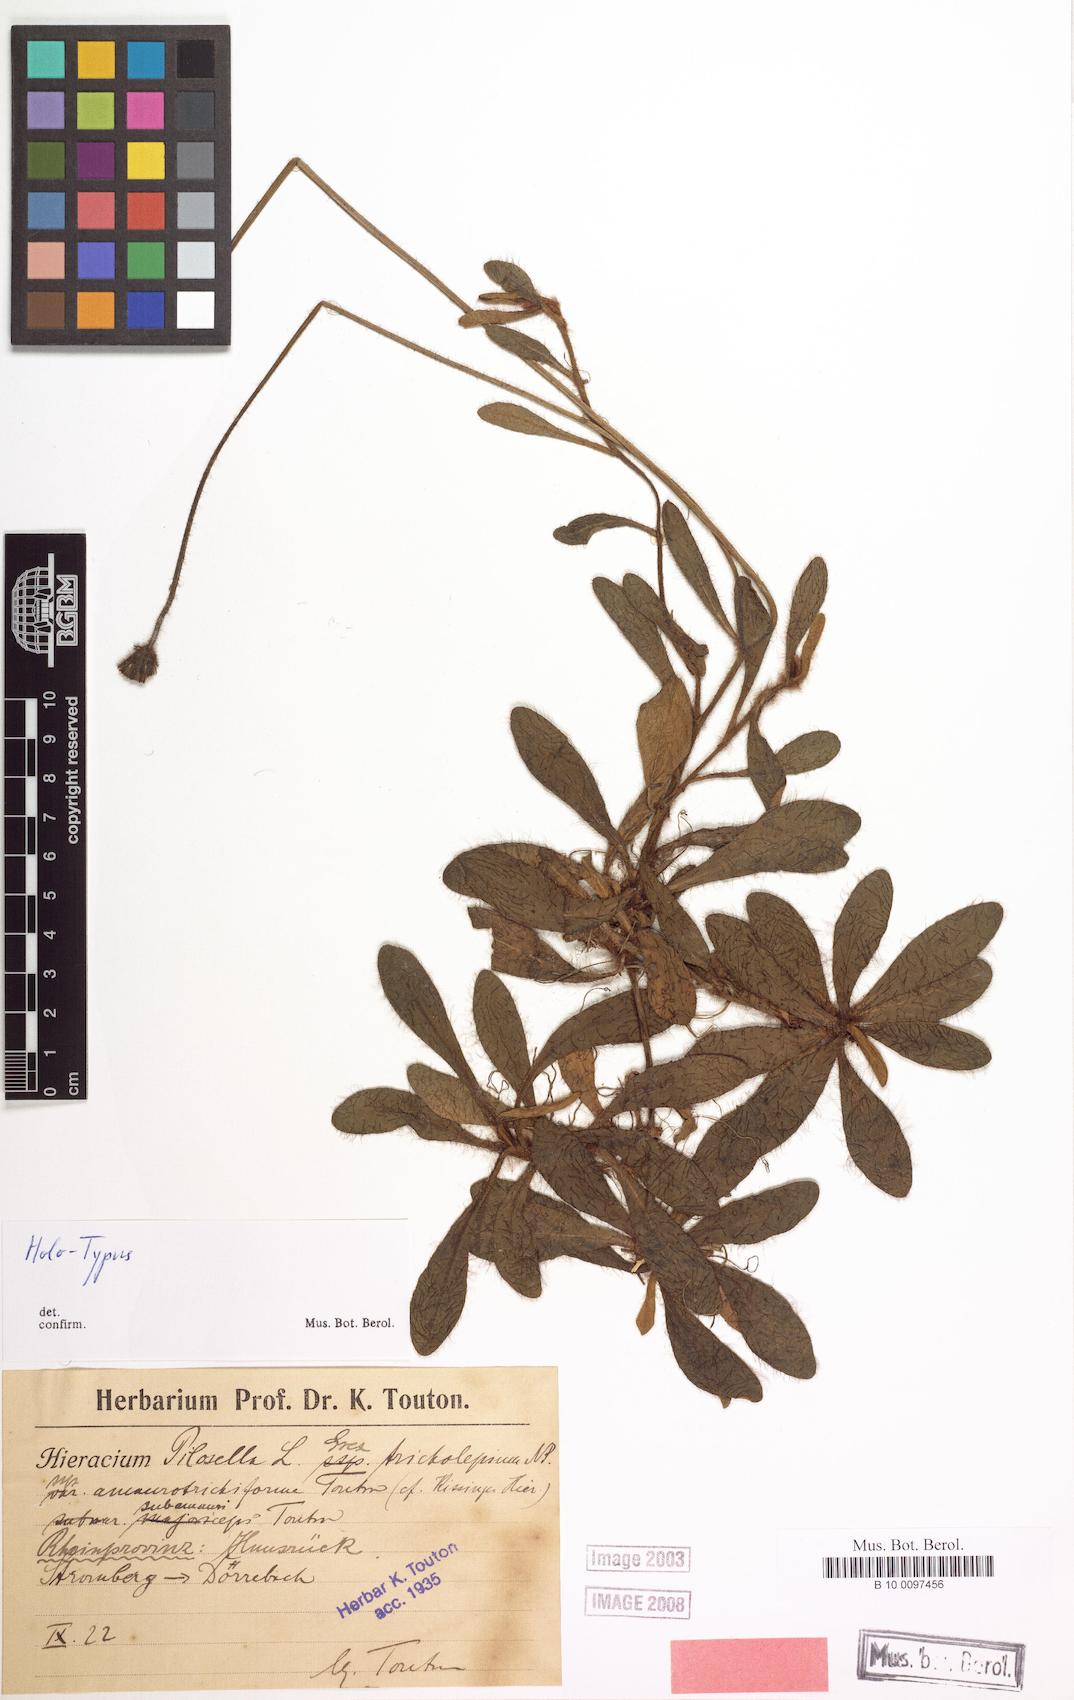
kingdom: Plantae
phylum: Tracheophyta
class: Magnoliopsida
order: Asterales
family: Asteraceae
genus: Pilosella
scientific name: Pilosella officinarum
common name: Mouse-ear hawkweed
